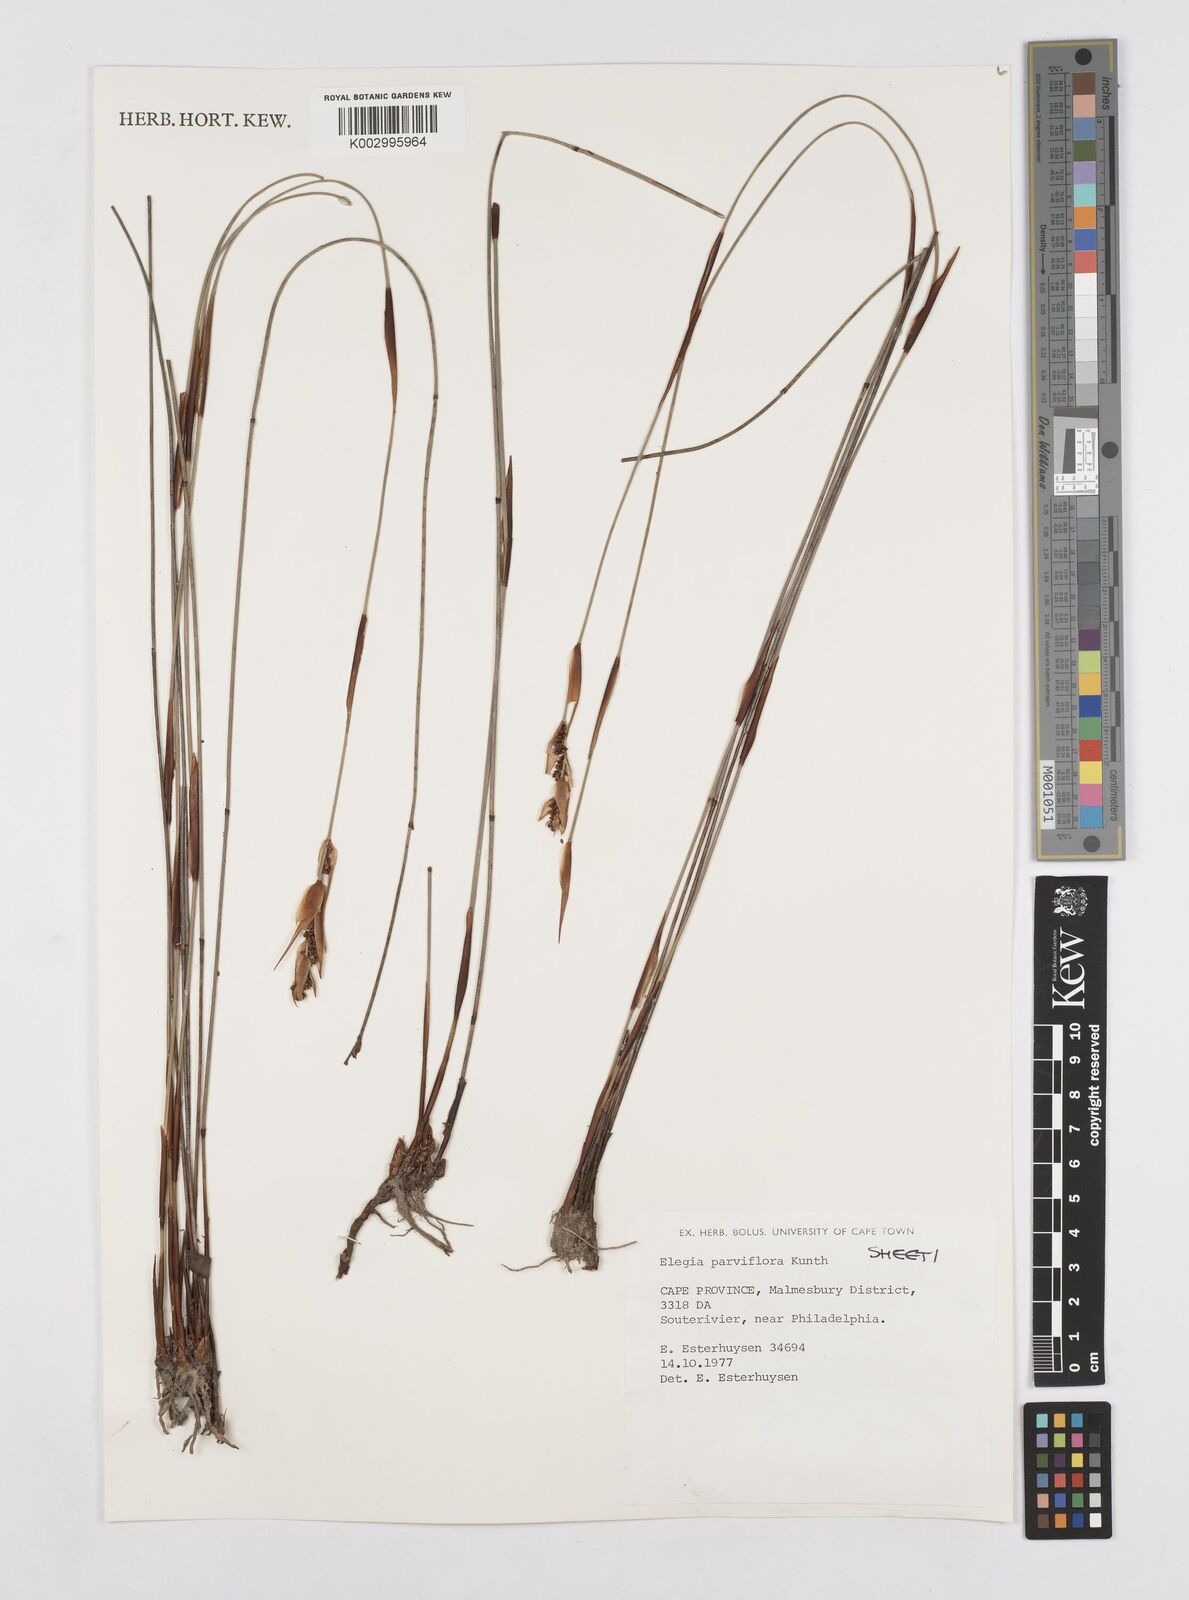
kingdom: Plantae
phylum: Tracheophyta
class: Liliopsida
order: Poales
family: Restionaceae
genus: Cannomois
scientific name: Cannomois parviflora
